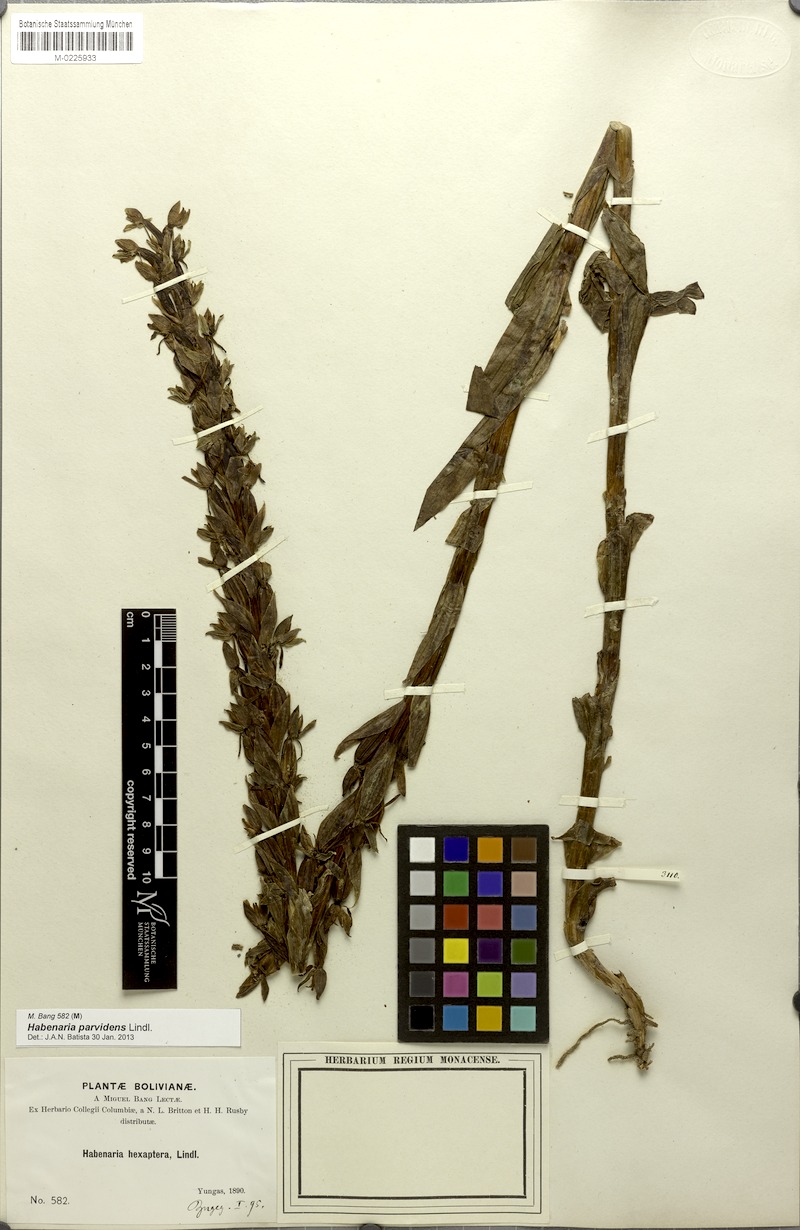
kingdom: Plantae
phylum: Tracheophyta
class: Liliopsida
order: Asparagales
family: Orchidaceae
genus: Habenaria
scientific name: Habenaria parvidens
